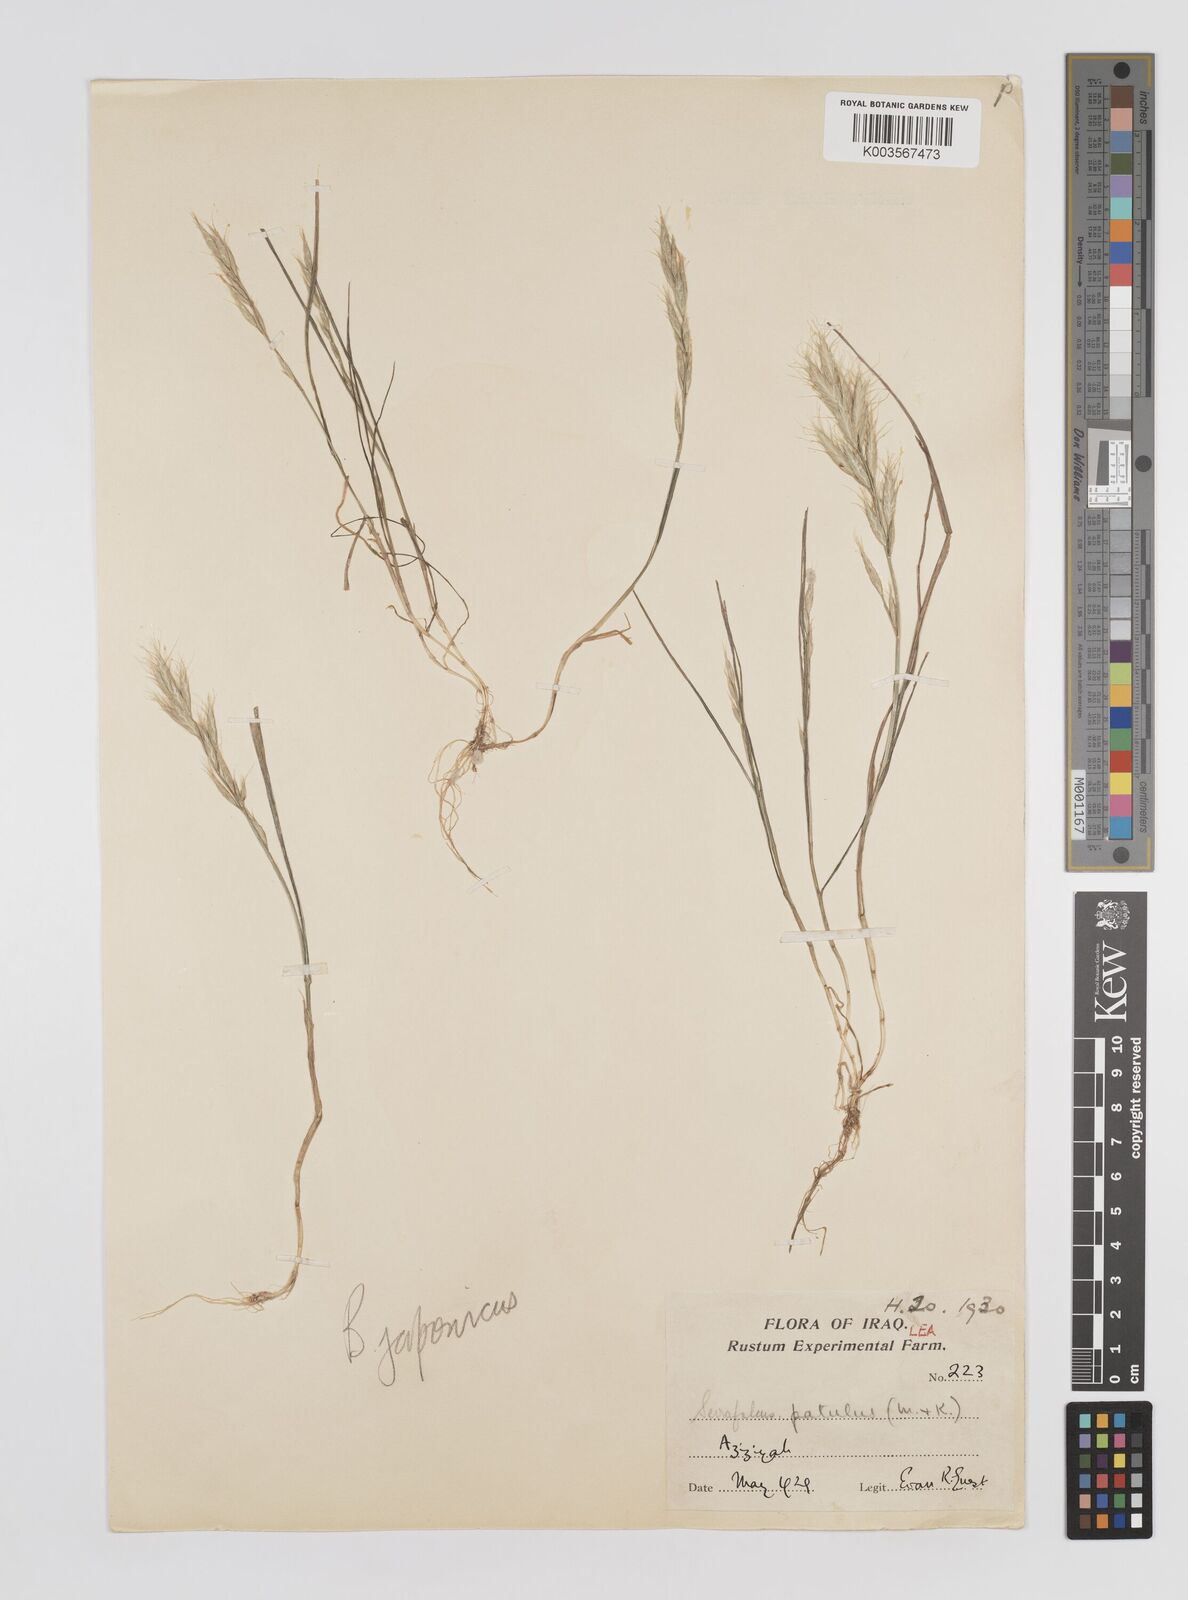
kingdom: Plantae
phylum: Tracheophyta
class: Liliopsida
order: Poales
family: Poaceae
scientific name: Poaceae
